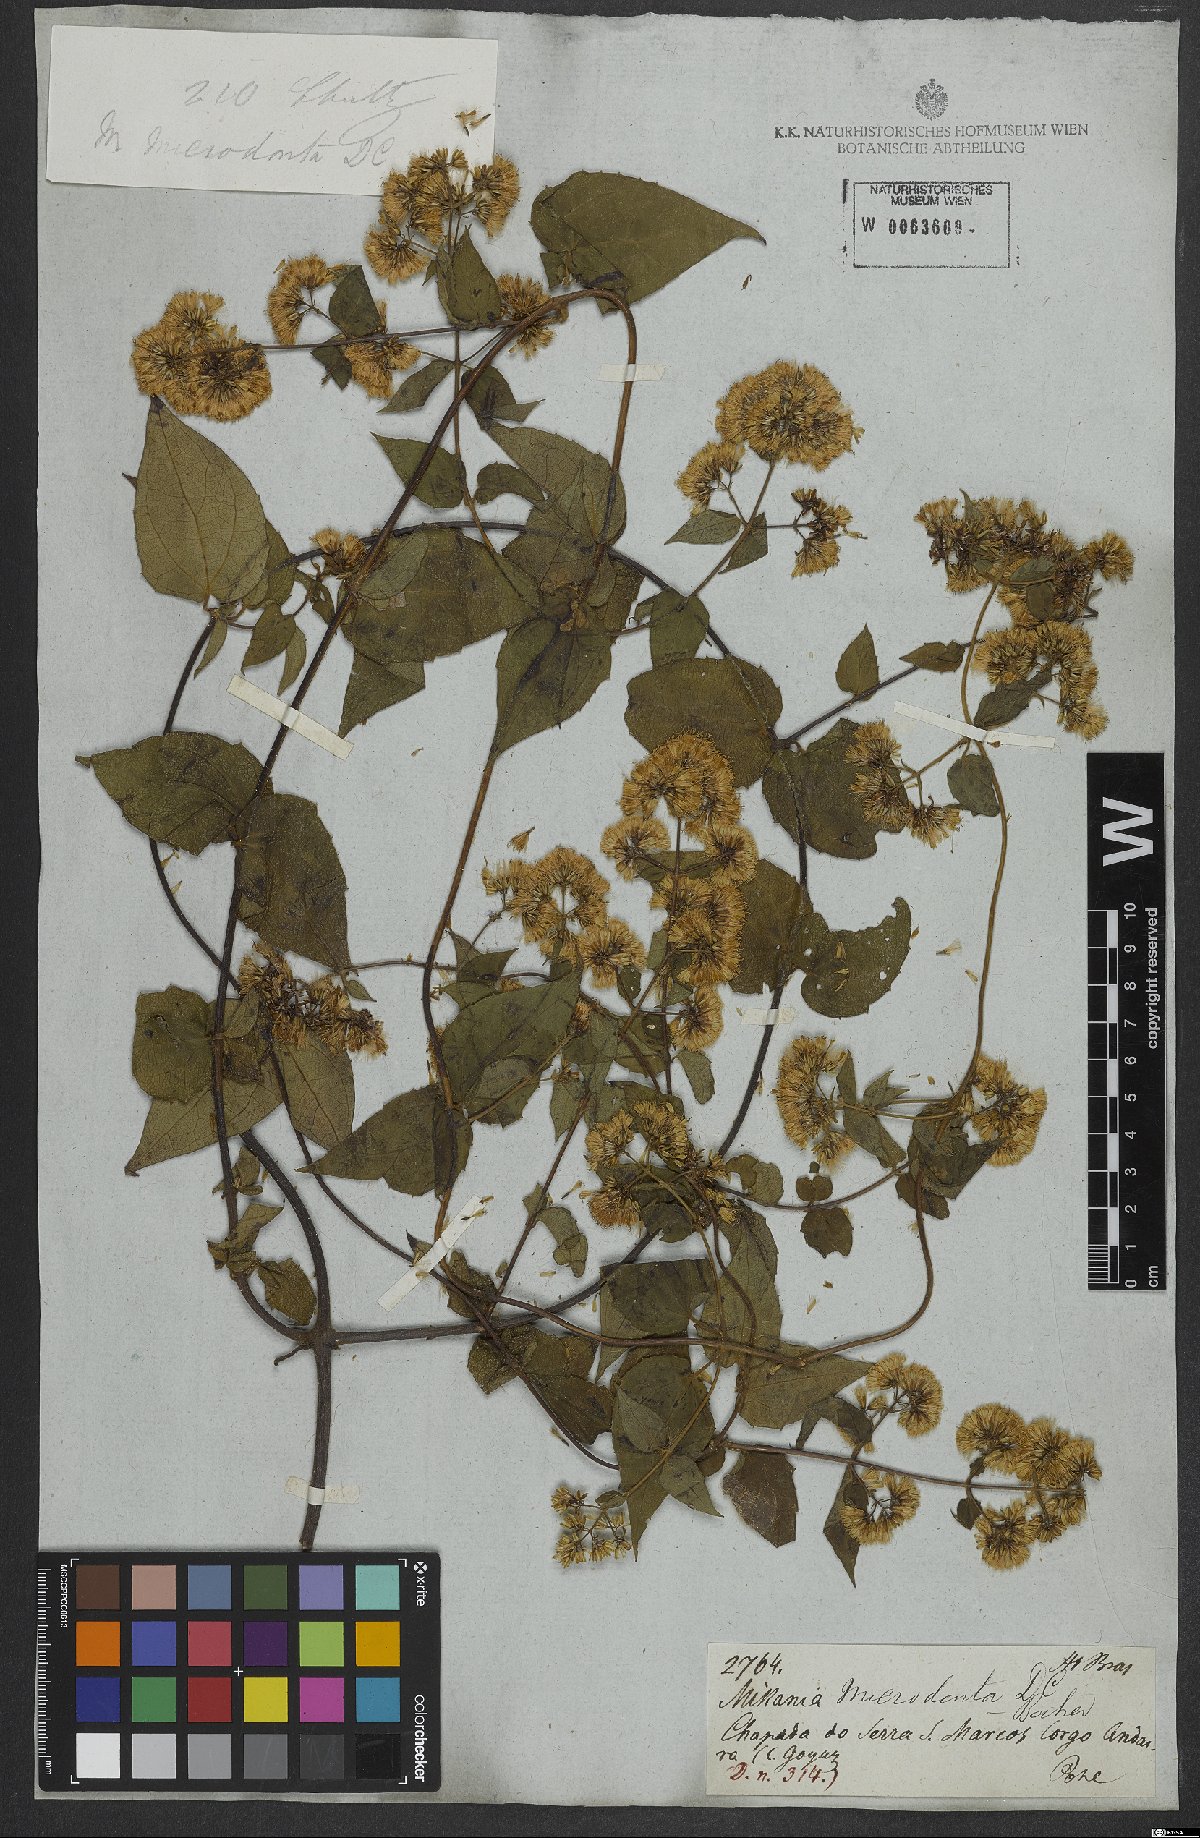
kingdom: Plantae
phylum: Tracheophyta
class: Magnoliopsida
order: Asterales
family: Asteraceae
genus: Mikania
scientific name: Mikania microdonta
